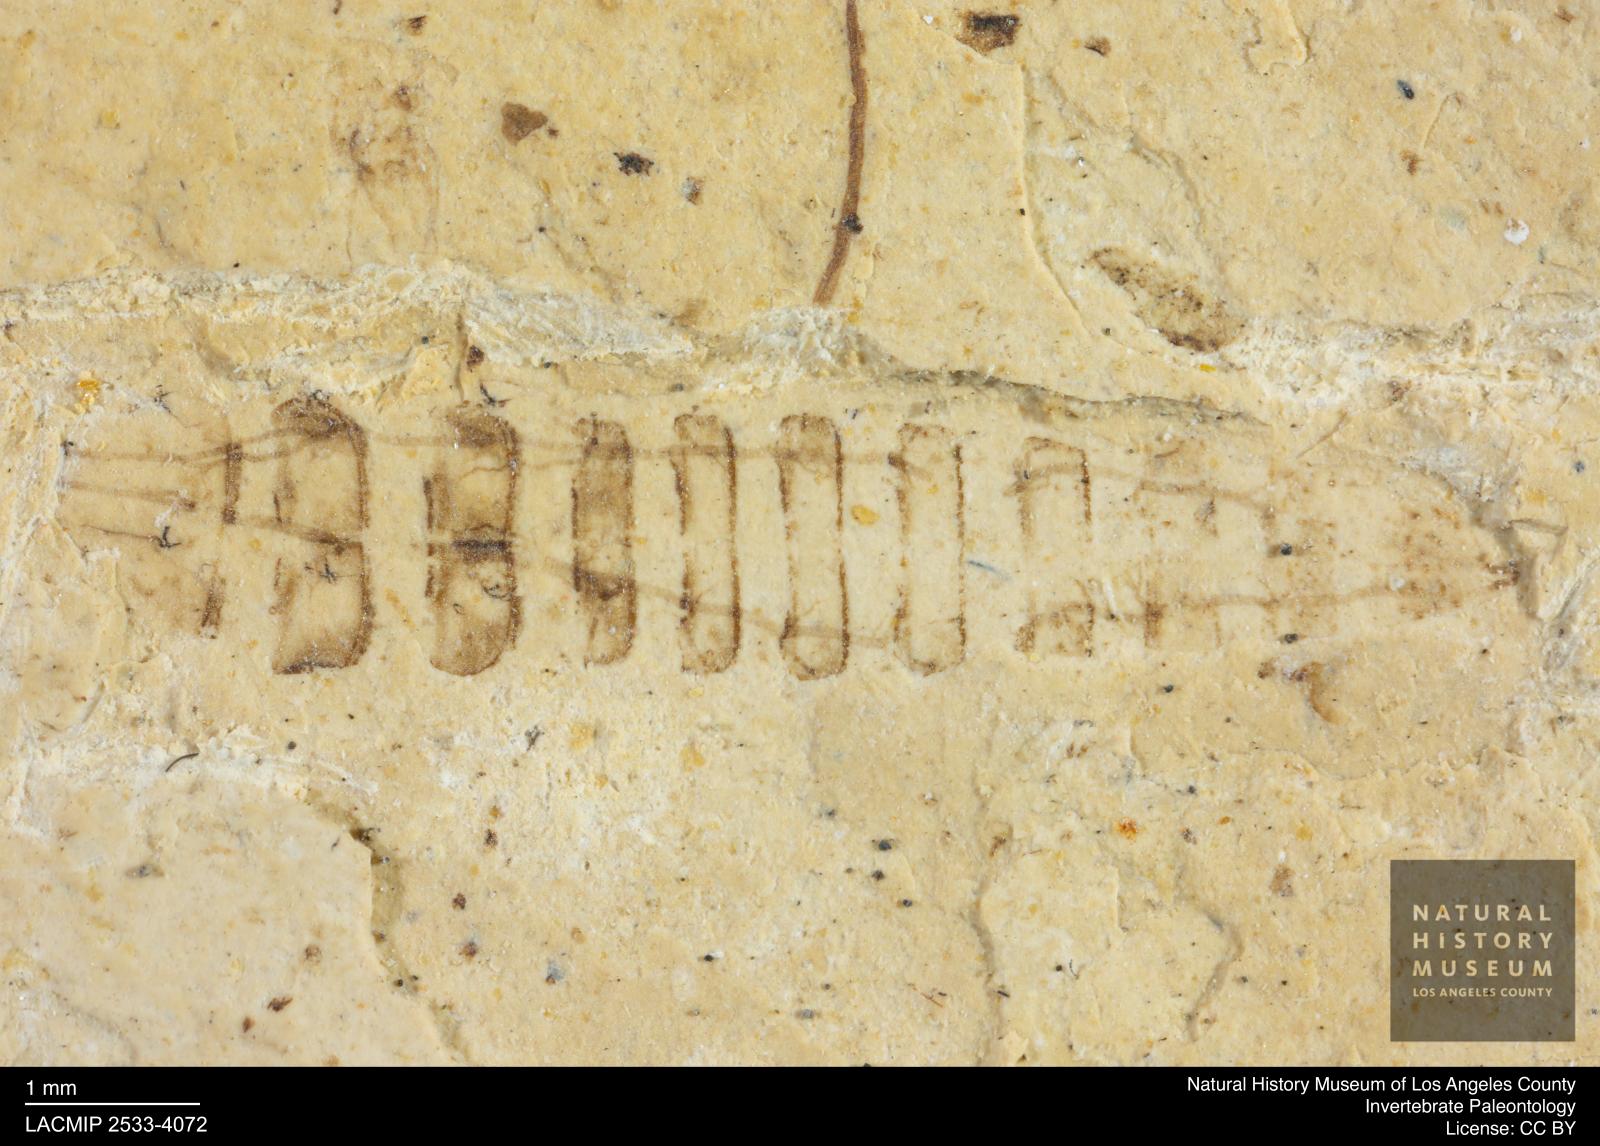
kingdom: Animalia
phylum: Arthropoda
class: Insecta
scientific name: Insecta
